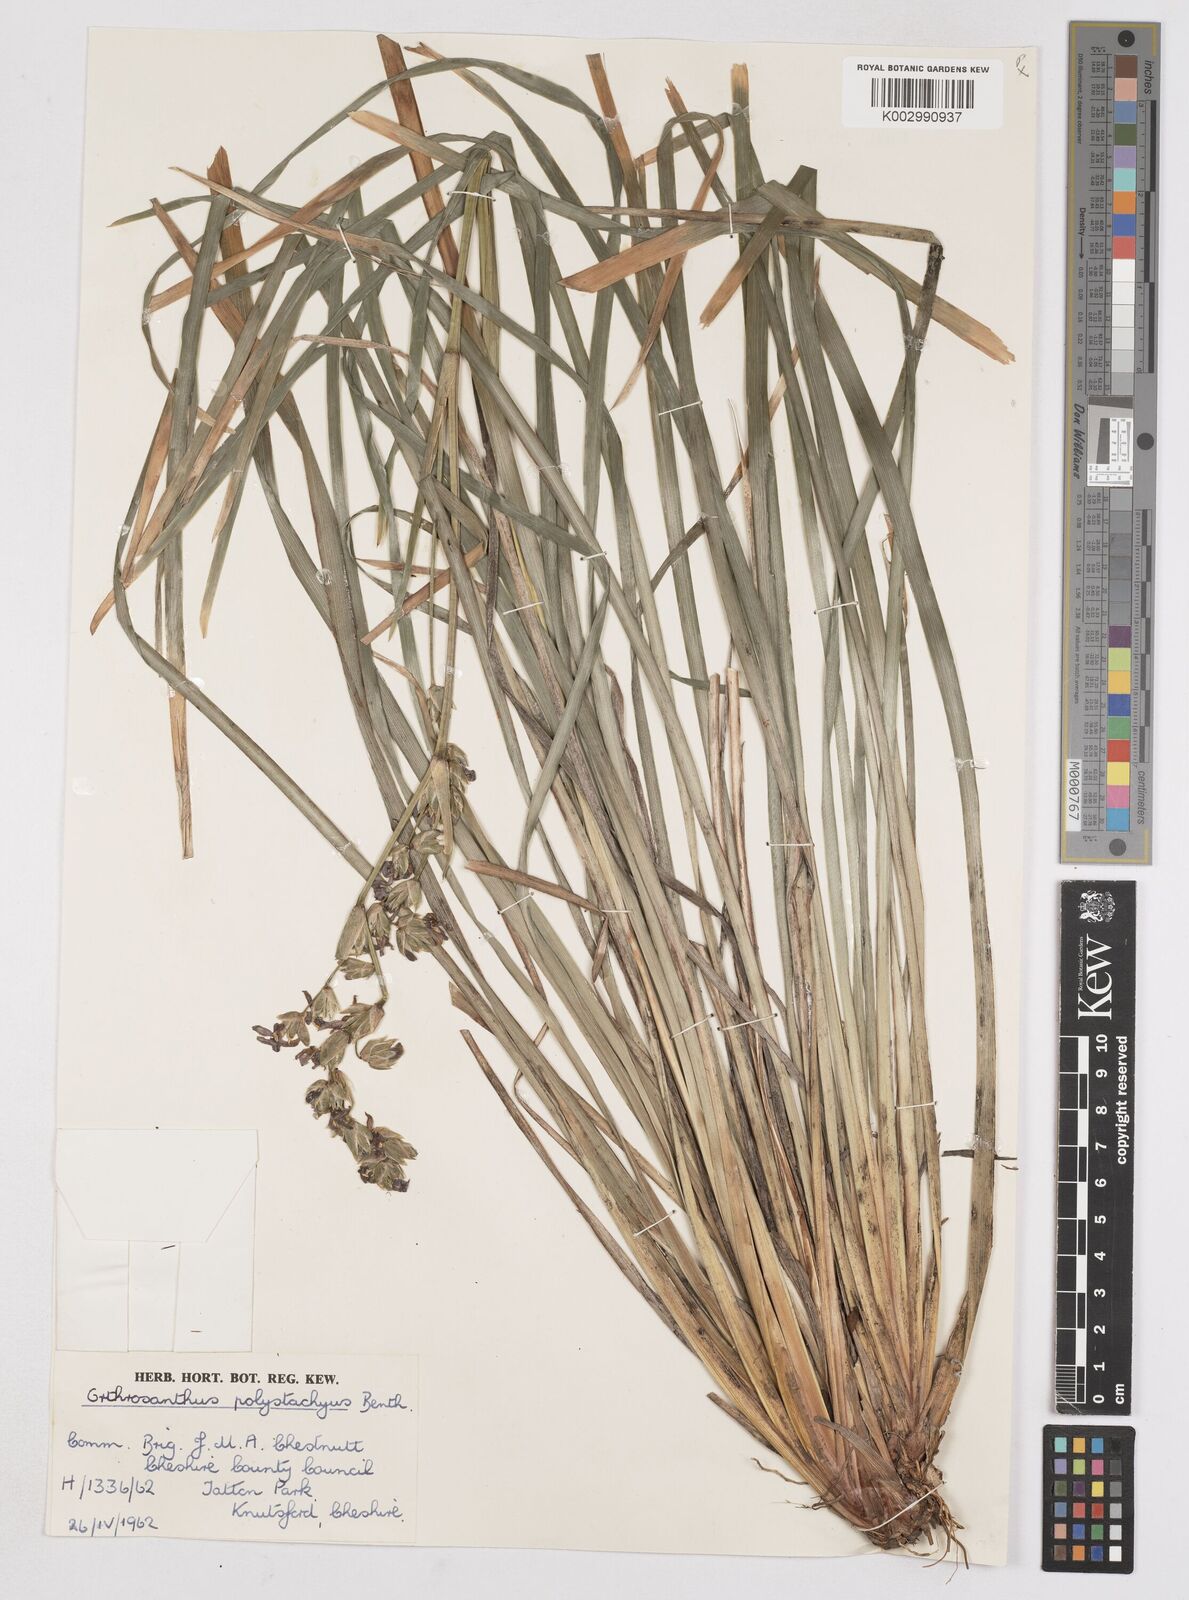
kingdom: Plantae
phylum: Tracheophyta
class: Liliopsida
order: Asparagales
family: Iridaceae
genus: Orthrosanthus
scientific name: Orthrosanthus polystachyus
